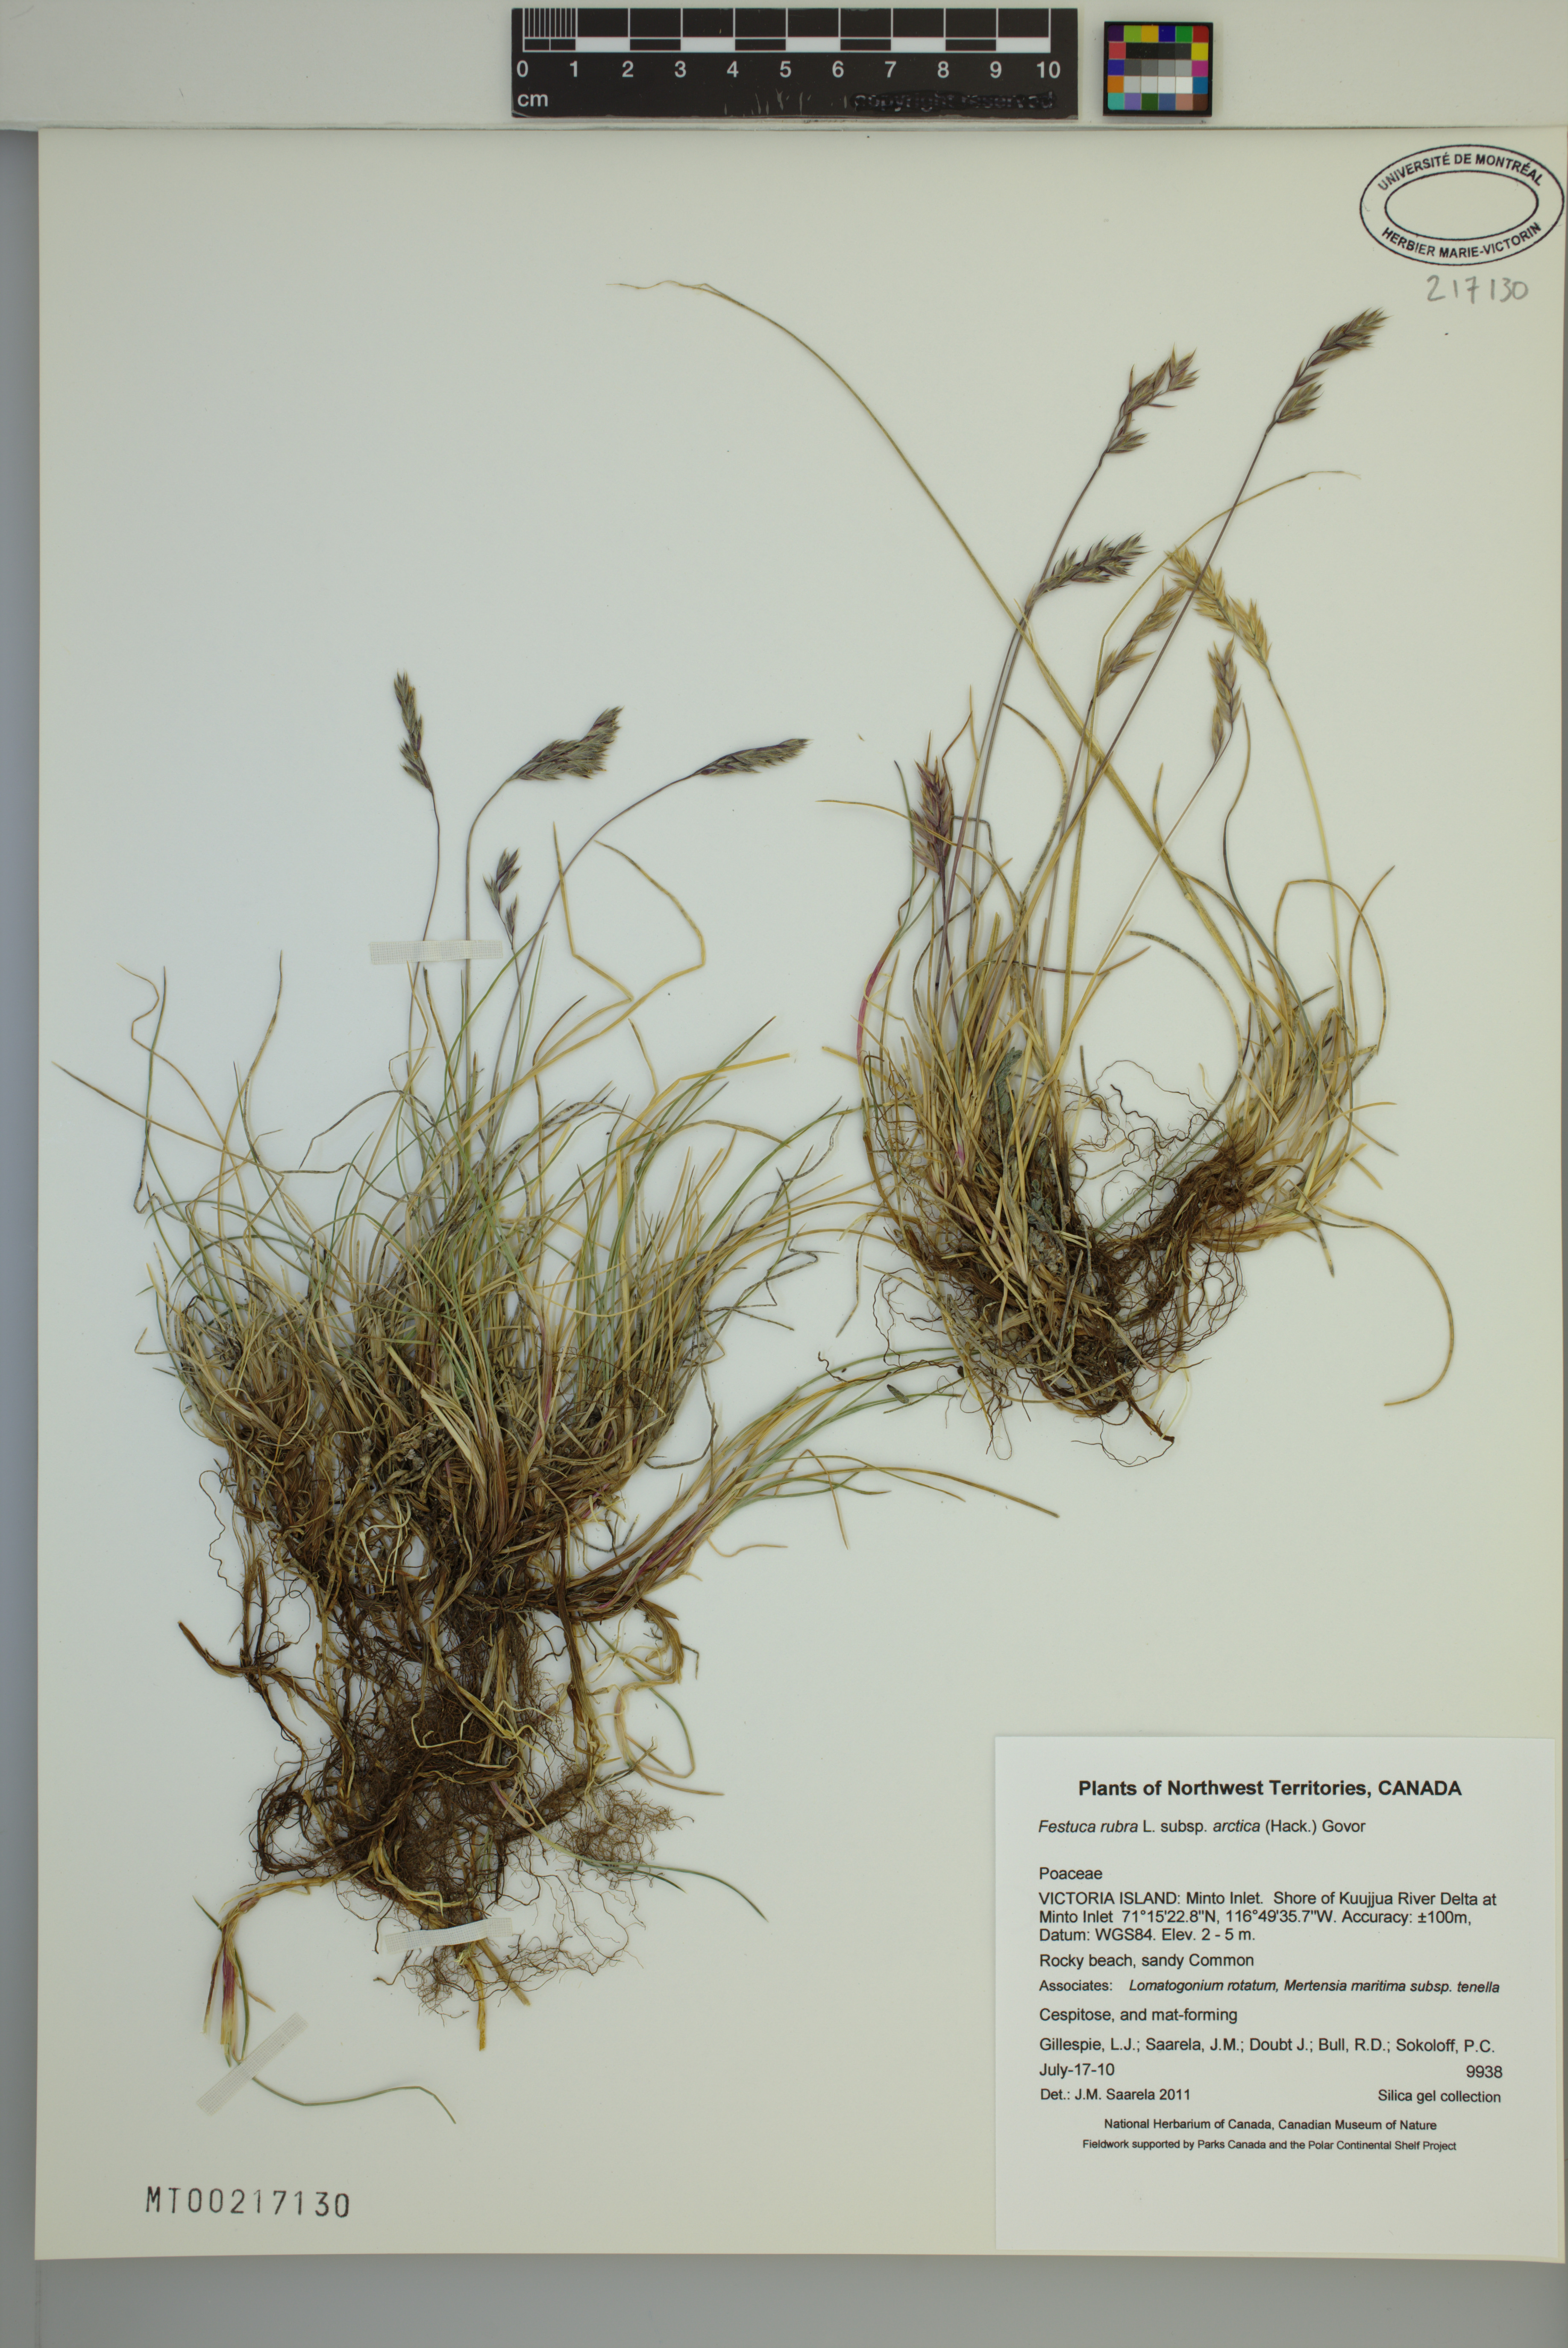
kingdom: Plantae
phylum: Tracheophyta
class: Liliopsida
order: Poales
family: Poaceae
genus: Festuca
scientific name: Festuca richardsonii
